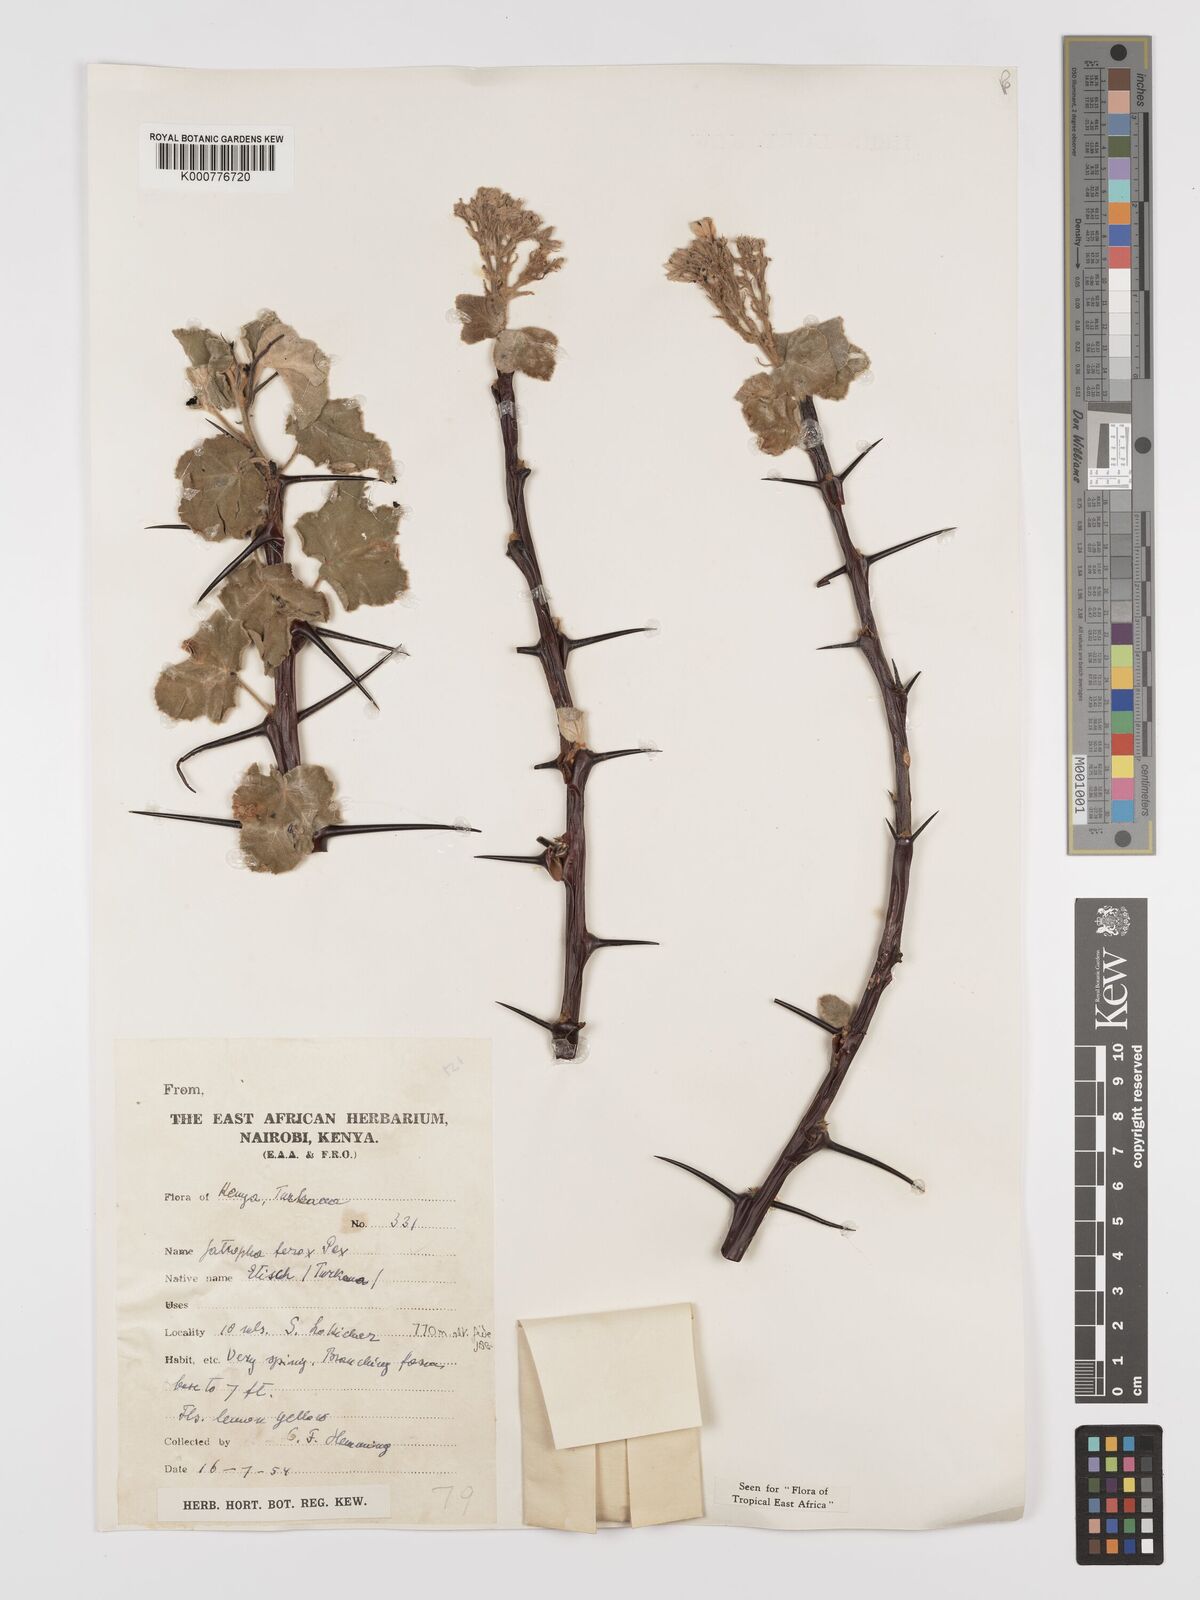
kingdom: Plantae
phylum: Tracheophyta
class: Magnoliopsida
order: Malpighiales
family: Euphorbiaceae
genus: Jatropha
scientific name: Jatropha dichtar
